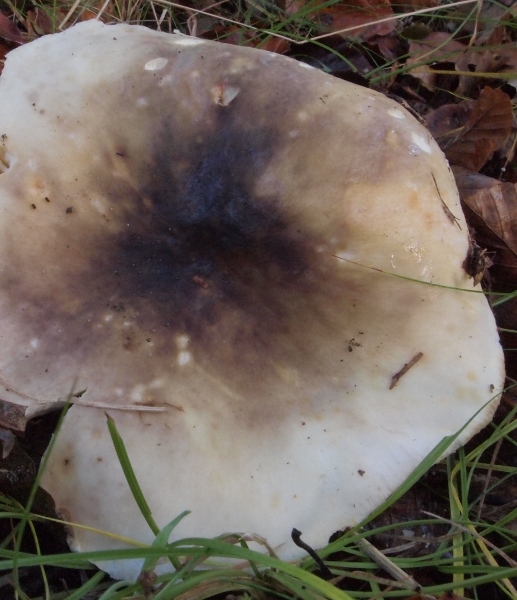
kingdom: Fungi
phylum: Basidiomycota
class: Agaricomycetes
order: Russulales
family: Russulaceae
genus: Russula
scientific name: Russula romellii
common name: romells skørhat
